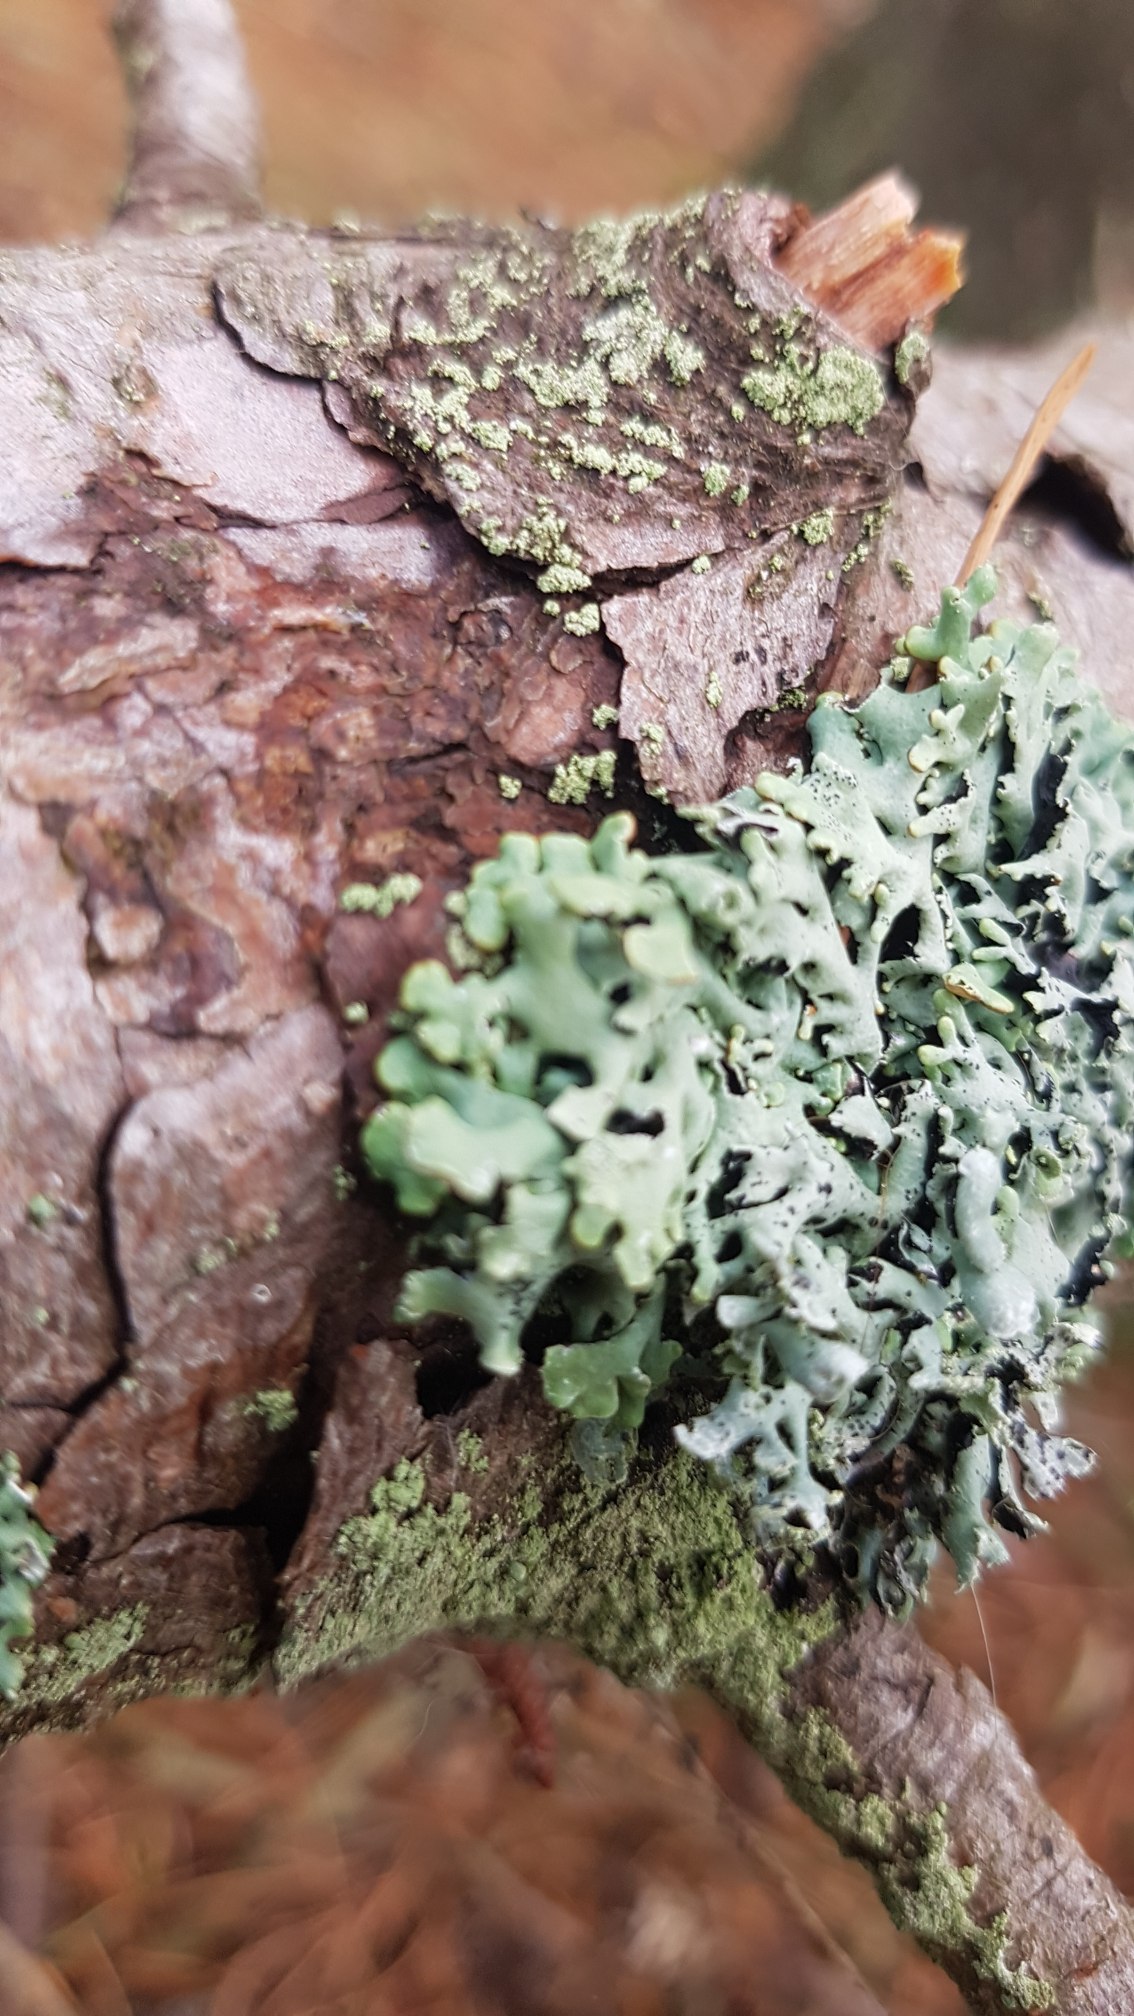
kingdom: Fungi
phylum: Ascomycota
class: Lecanoromycetes
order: Lecanorales
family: Parmeliaceae
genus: Hypogymnia
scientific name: Hypogymnia physodes
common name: Almindelig kvistlav
